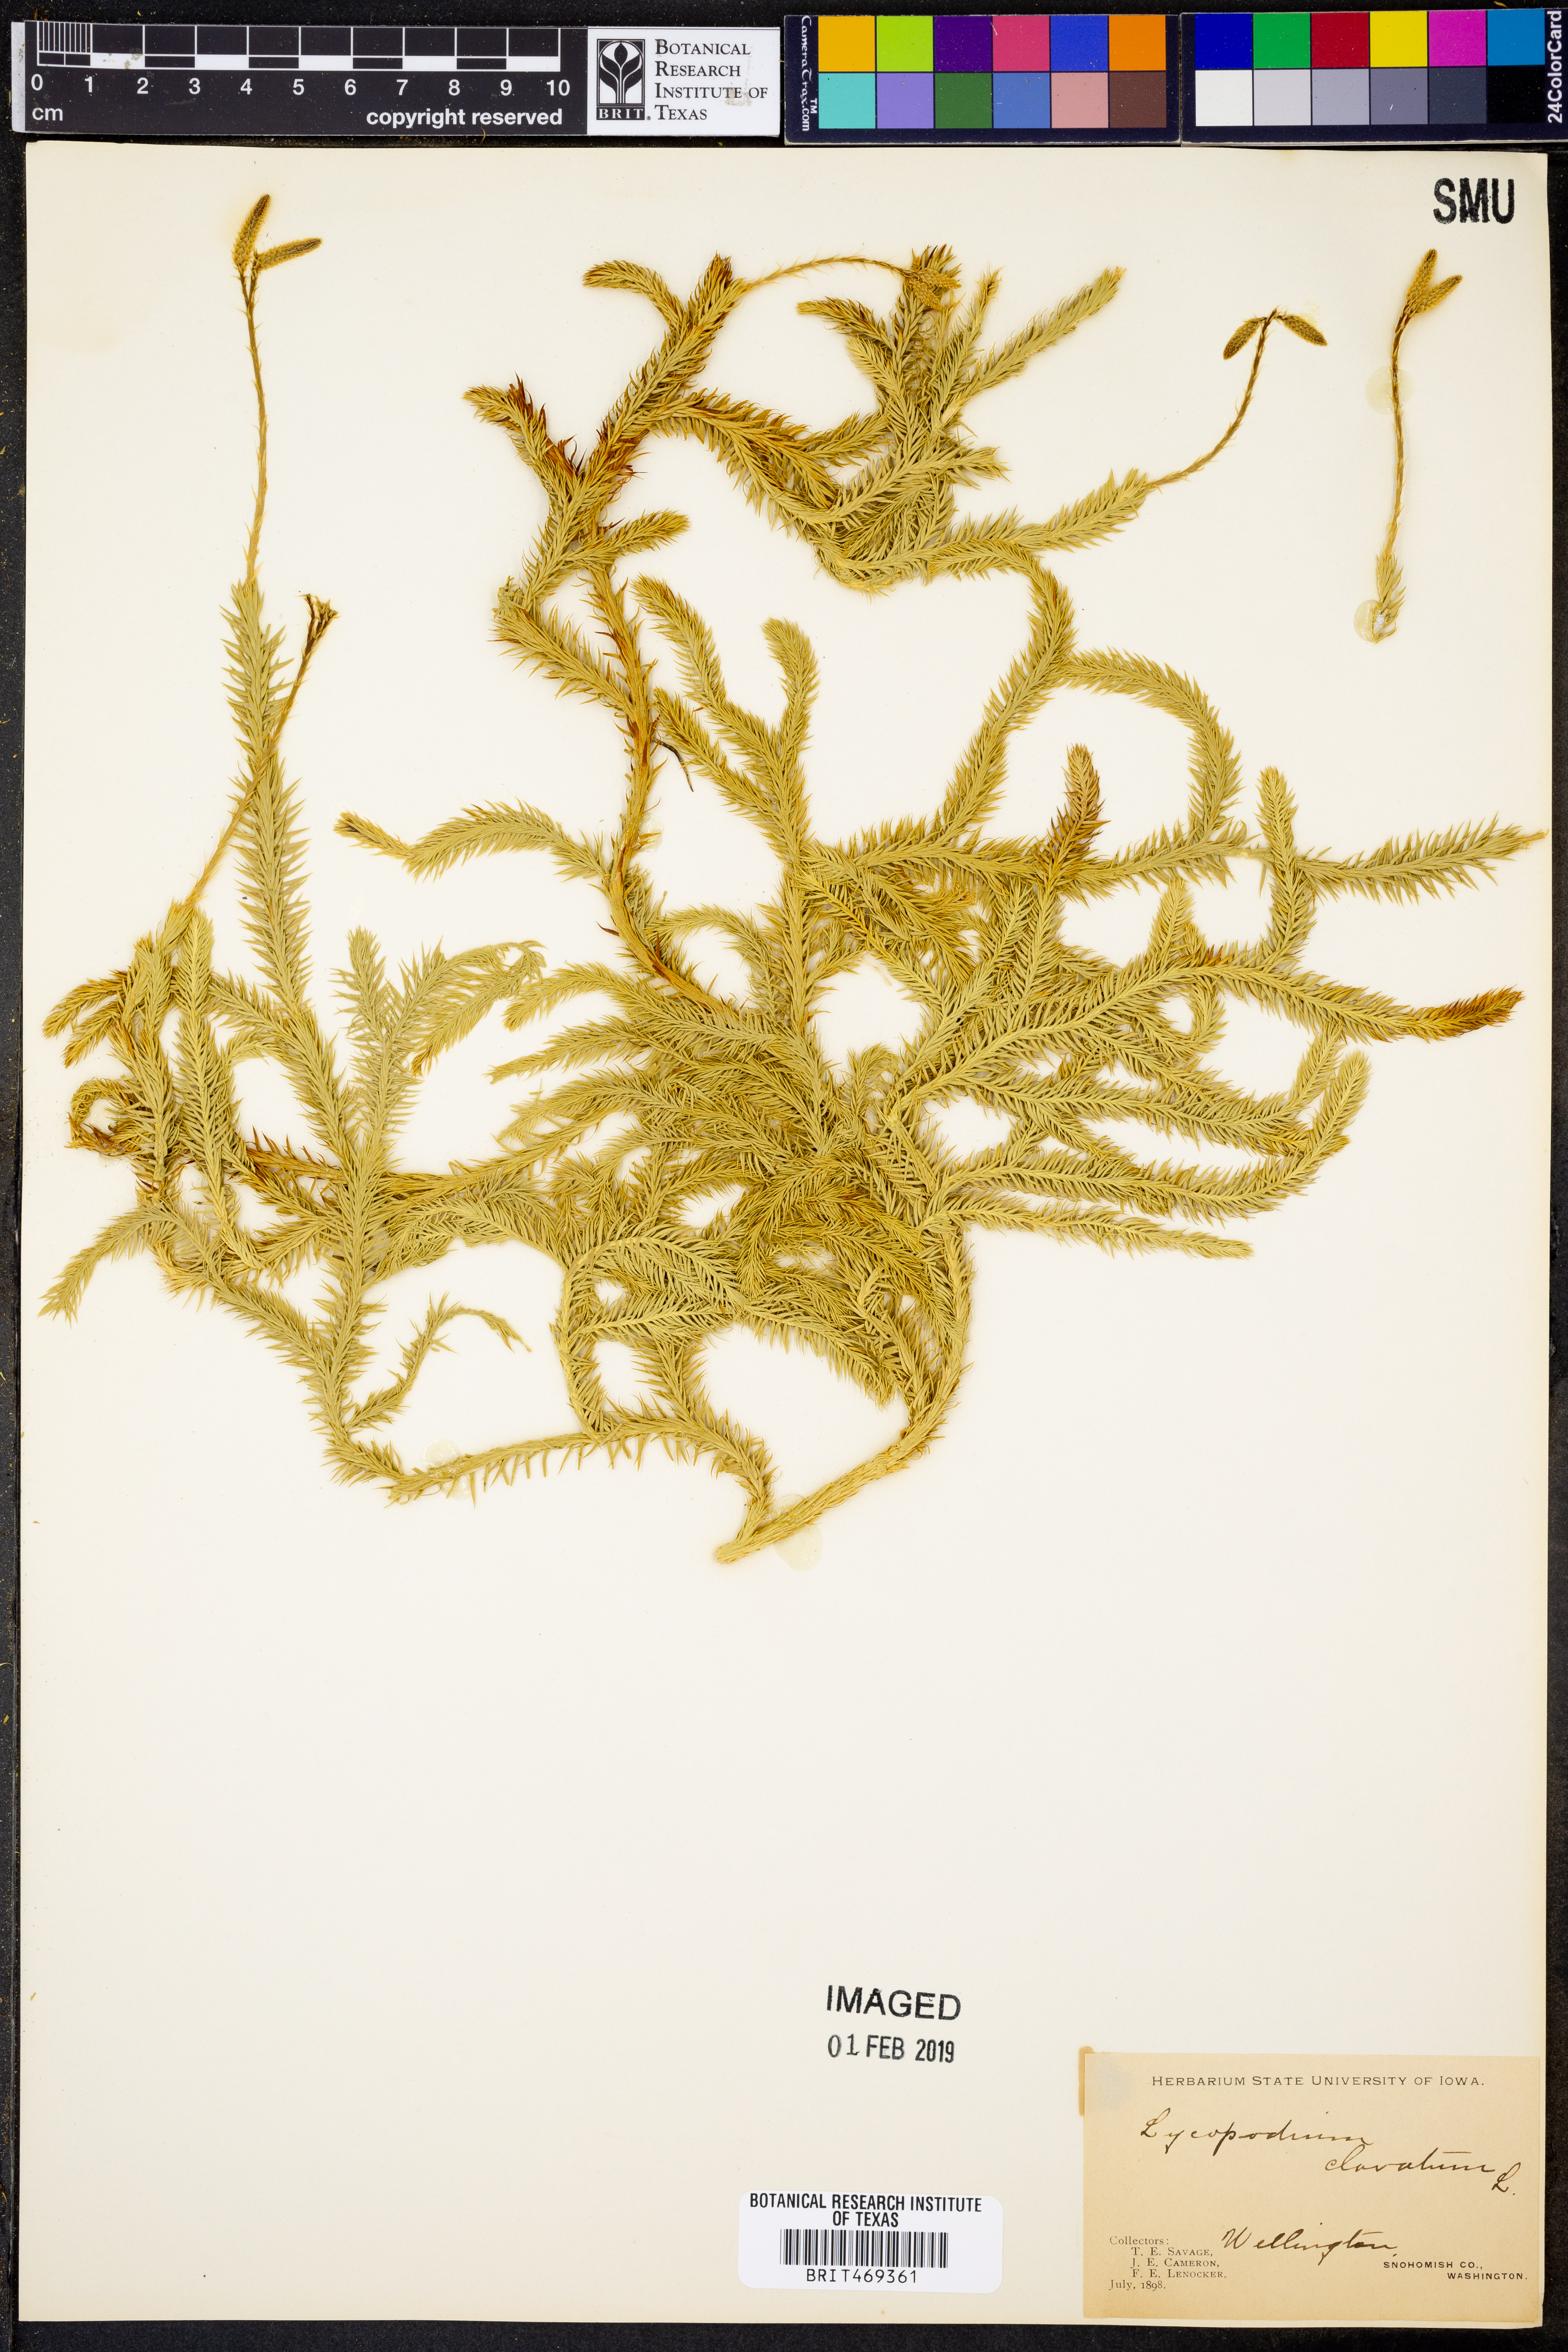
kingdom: Plantae
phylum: Tracheophyta
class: Lycopodiopsida
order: Lycopodiales
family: Lycopodiaceae
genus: Lycopodium
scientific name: Lycopodium clavatum
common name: Stag's-horn clubmoss
